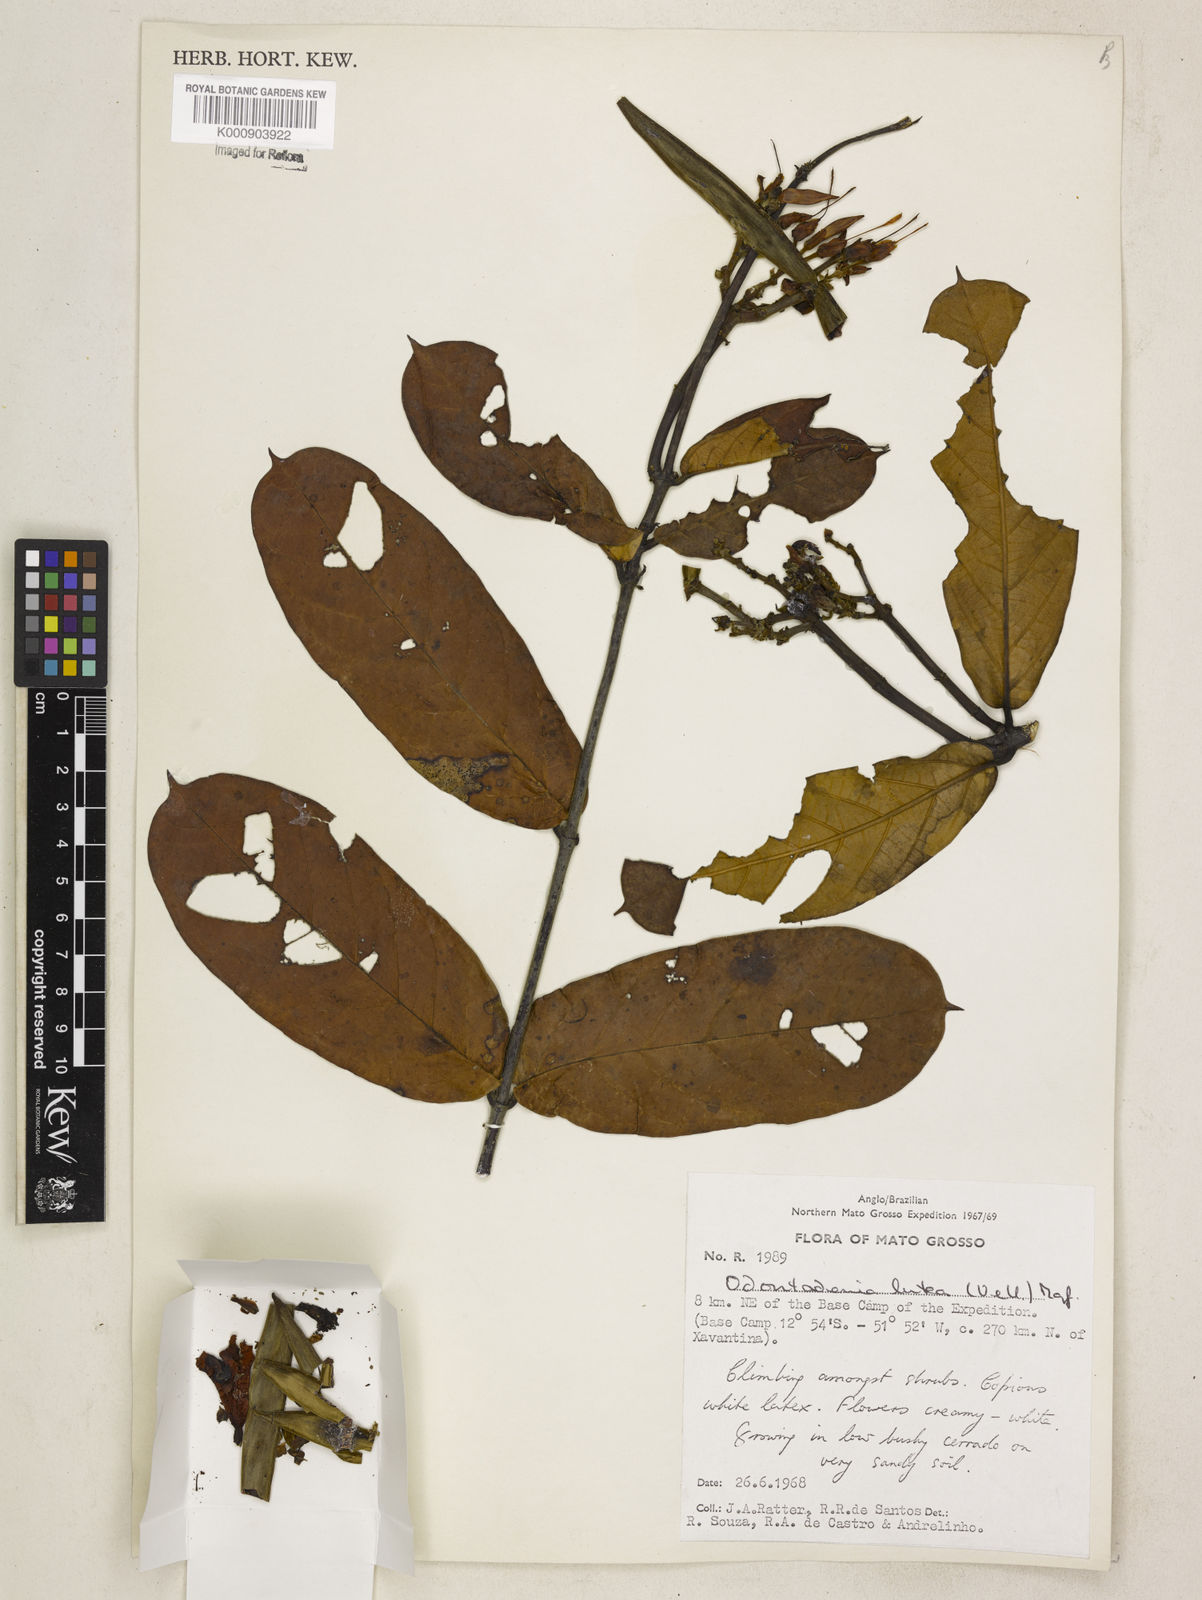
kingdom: Plantae
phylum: Tracheophyta
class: Magnoliopsida
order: Gentianales
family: Apocynaceae
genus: Odontadenia
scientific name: Odontadenia lutea
